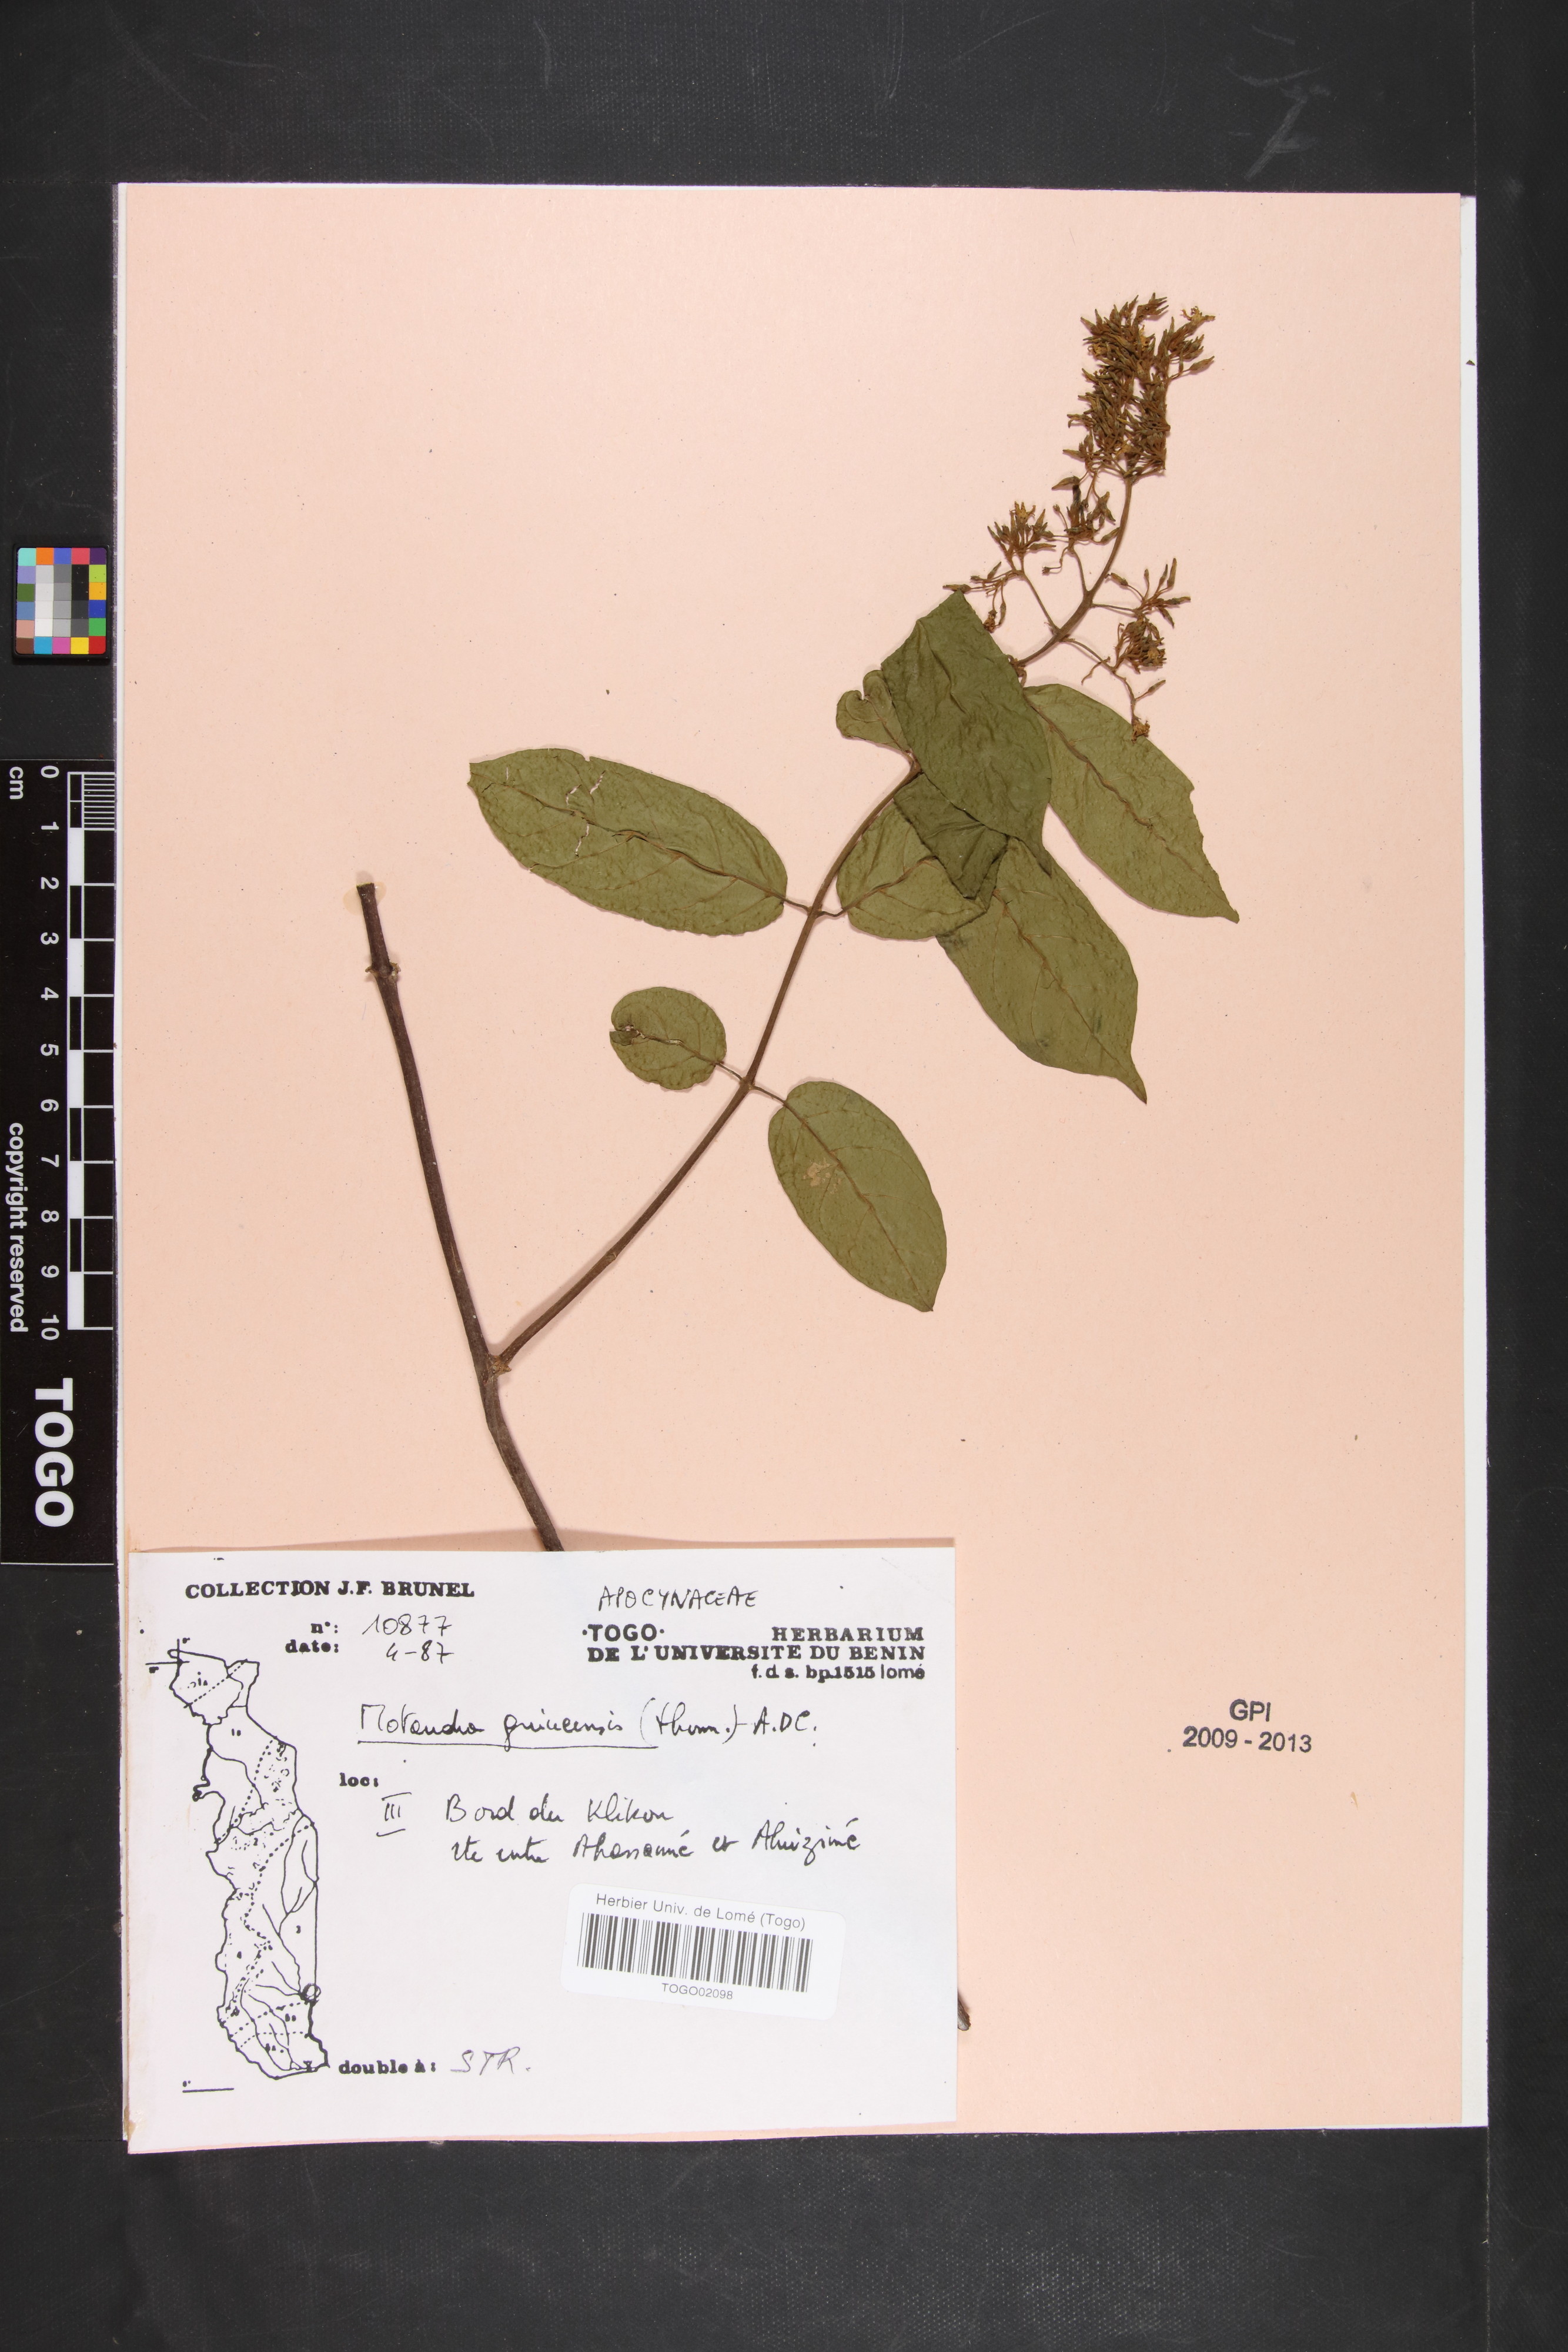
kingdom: Plantae
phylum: Tracheophyta
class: Magnoliopsida
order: Gentianales
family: Apocynaceae
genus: Motandra
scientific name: Motandra paniculata
